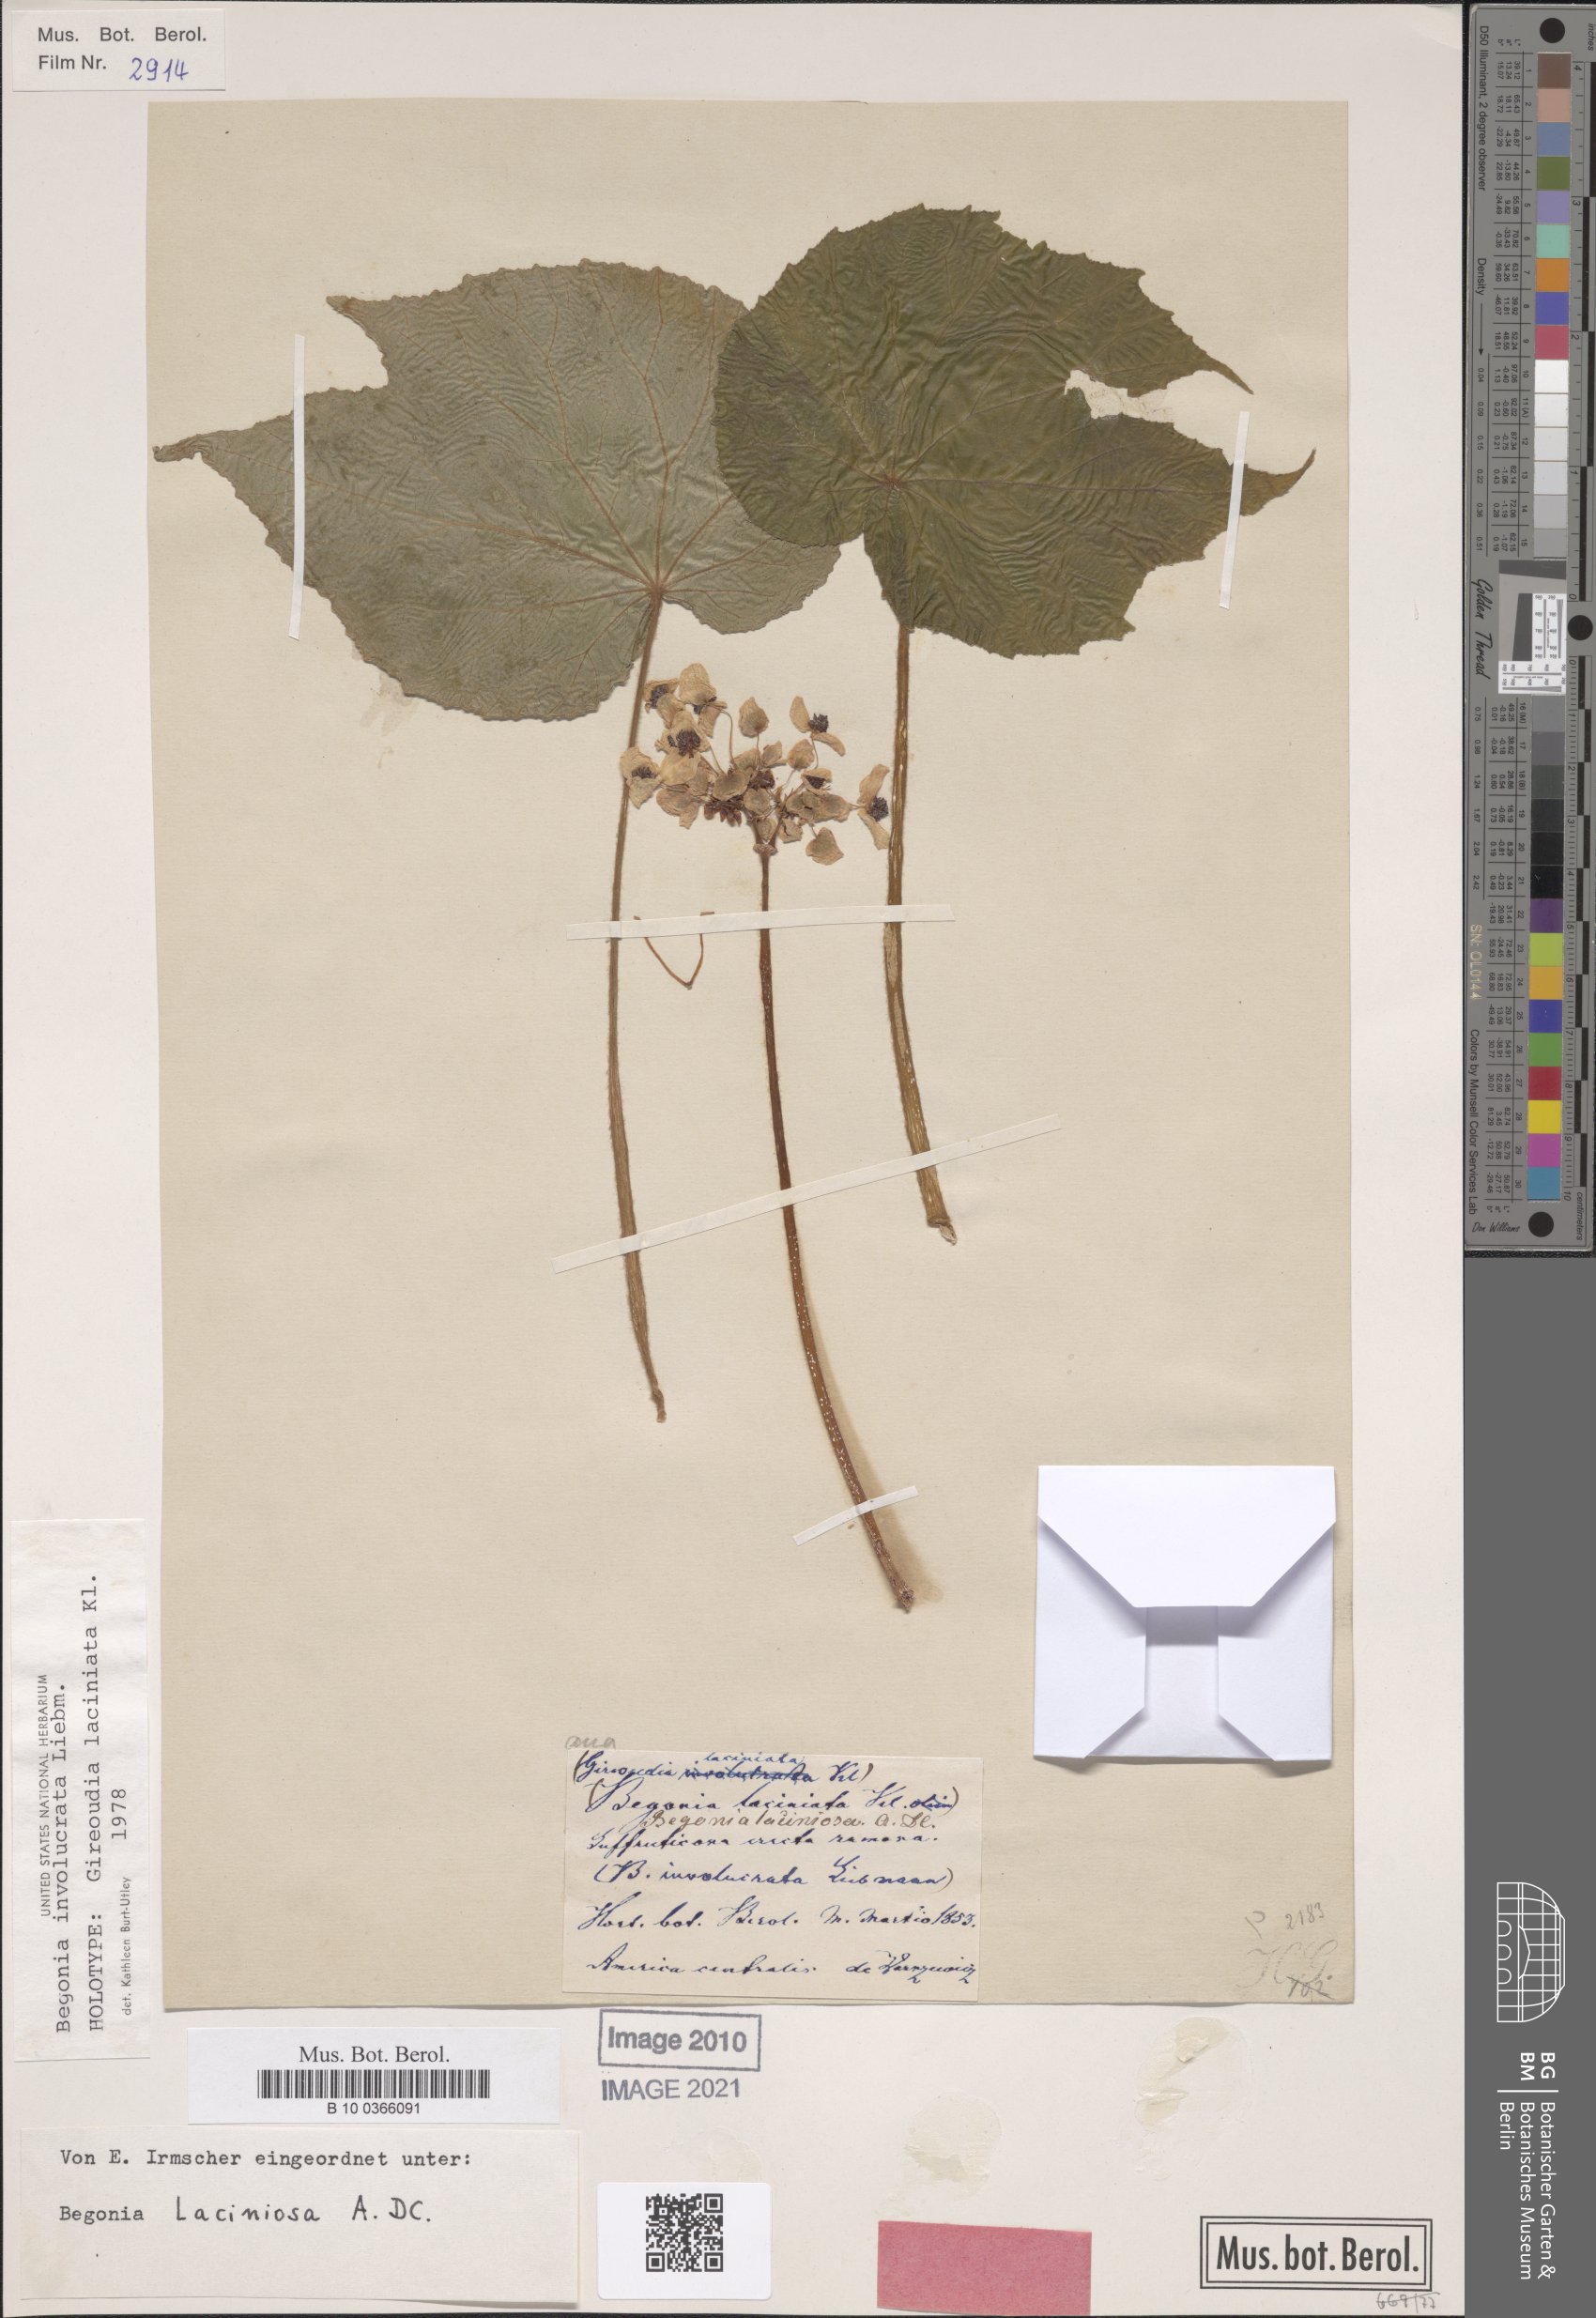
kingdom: Plantae
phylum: Tracheophyta
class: Magnoliopsida
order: Cucurbitales
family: Begoniaceae
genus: Begonia
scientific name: Begonia involucrata
